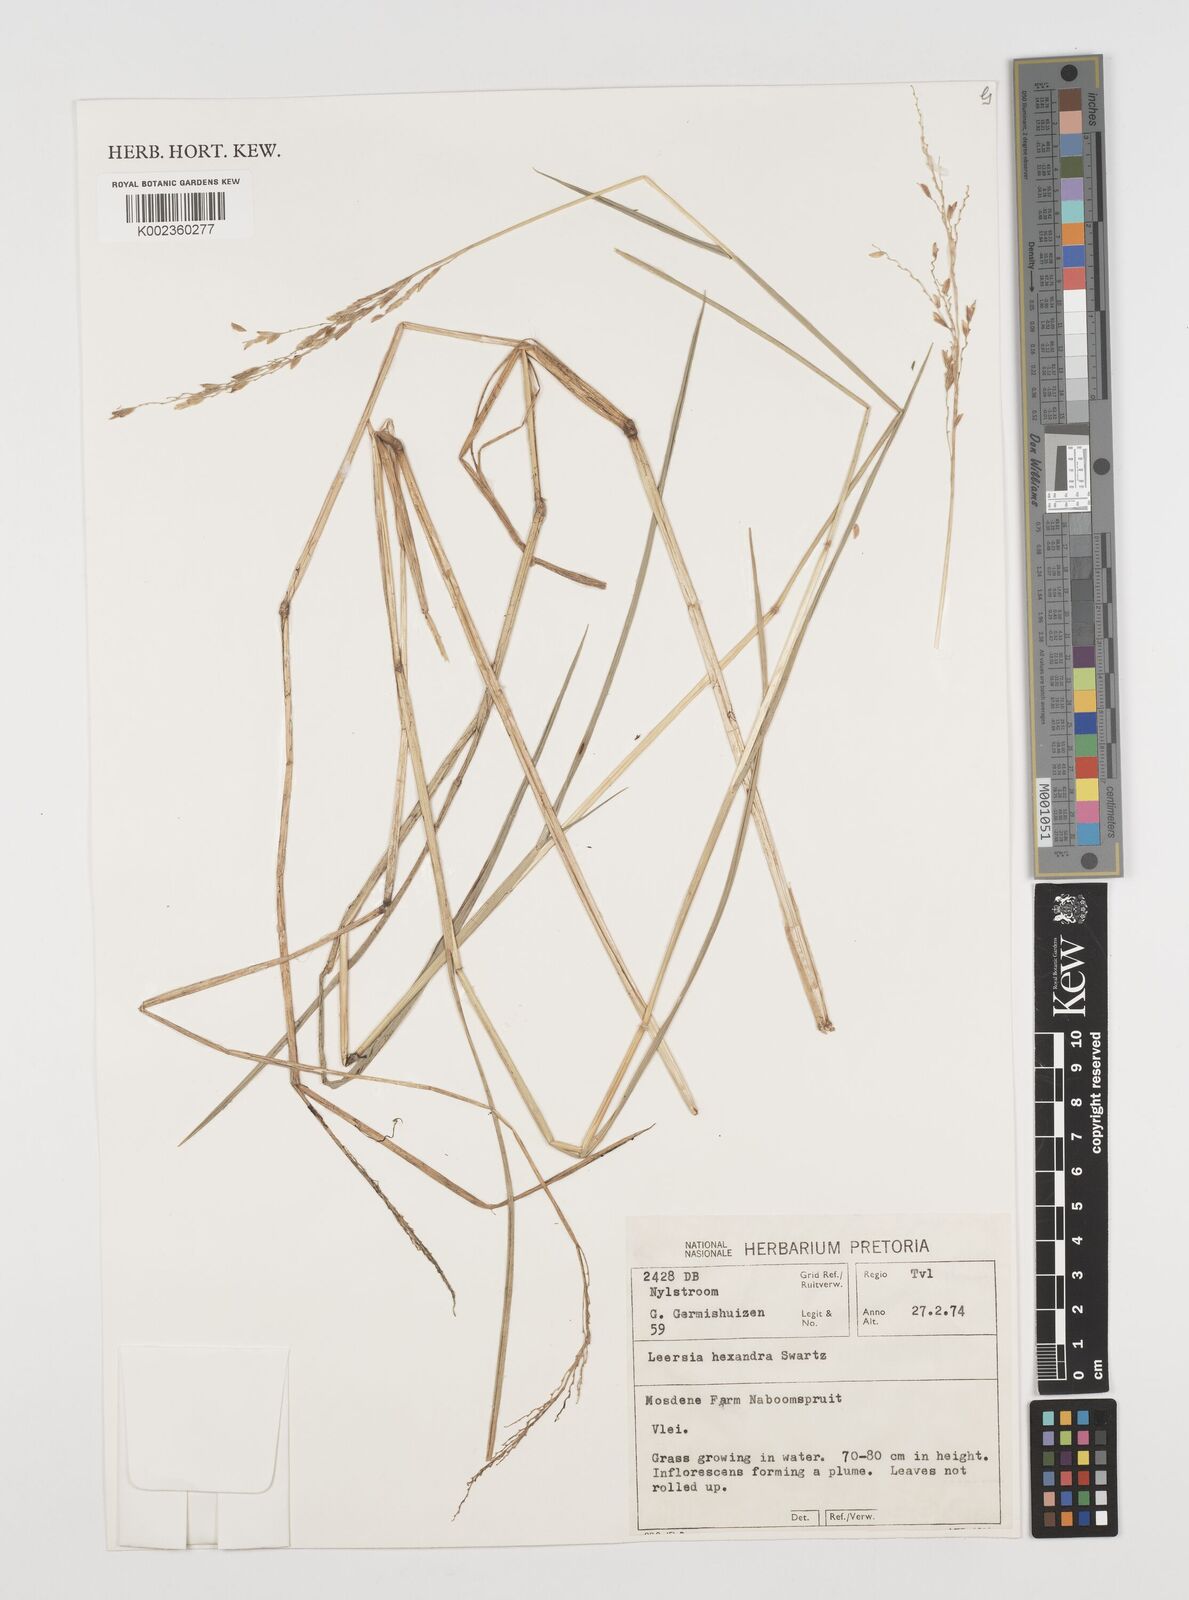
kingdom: Plantae
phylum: Tracheophyta
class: Liliopsida
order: Poales
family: Poaceae
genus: Leersia
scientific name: Leersia hexandra
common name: Southern cut grass
